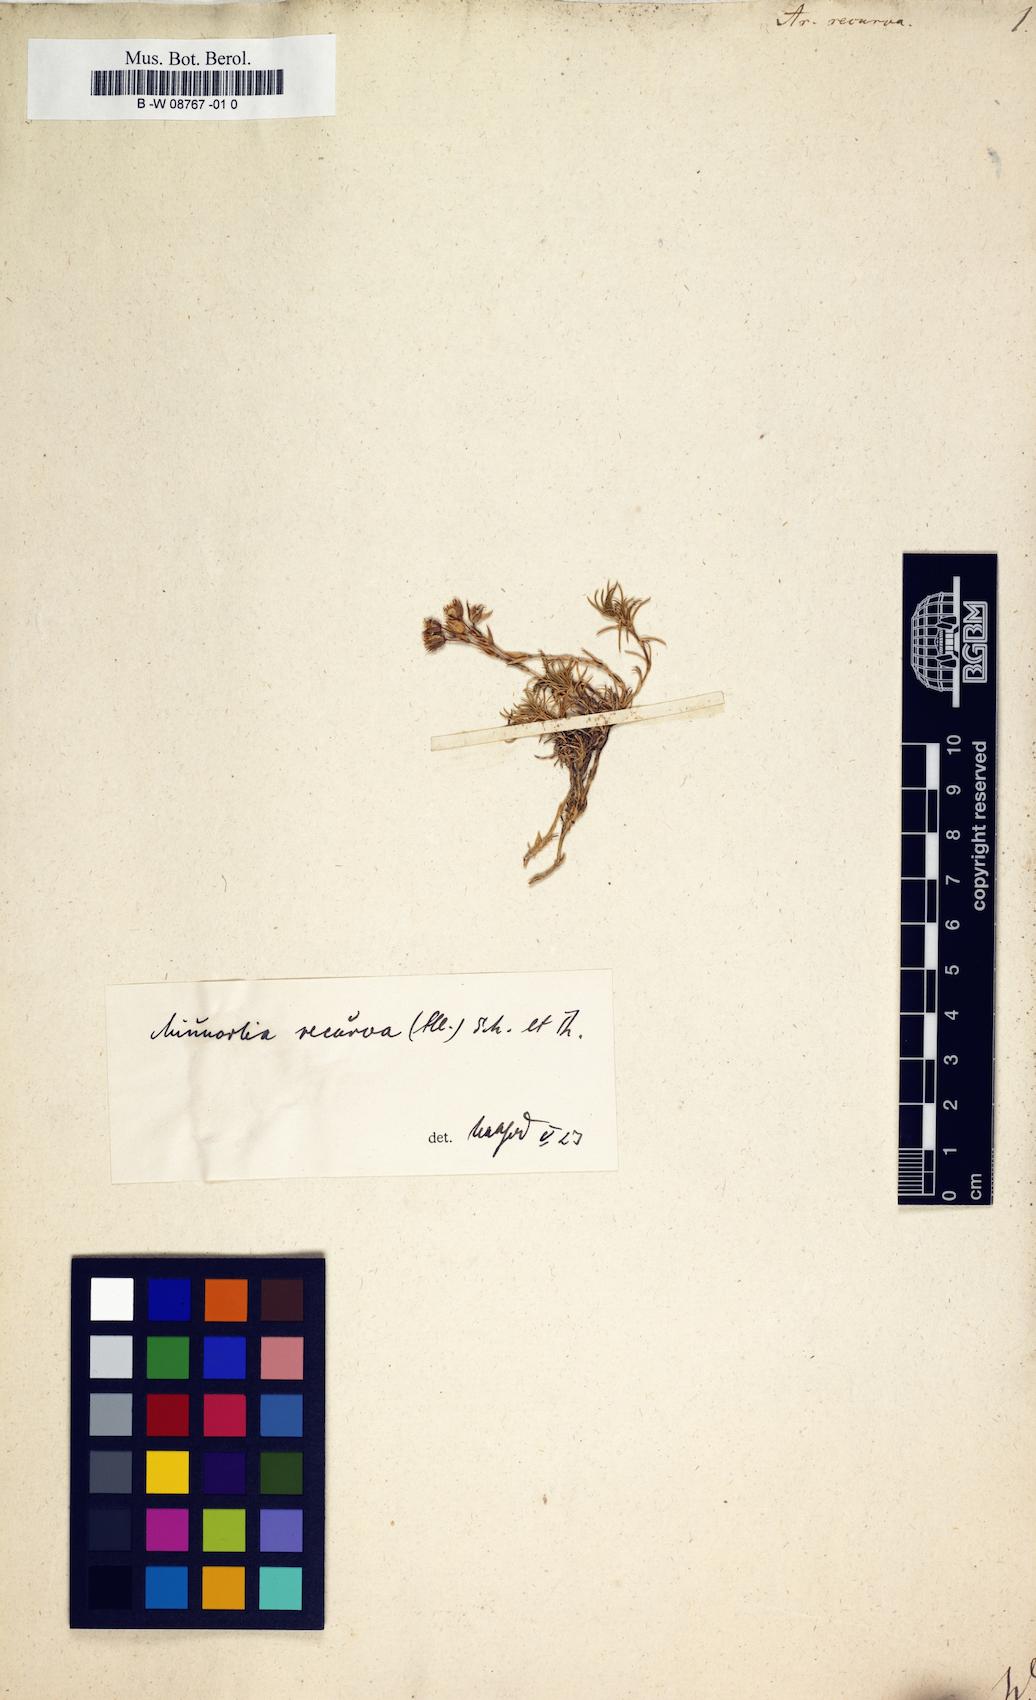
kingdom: Plantae
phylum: Tracheophyta
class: Magnoliopsida
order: Caryophyllales
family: Caryophyllaceae
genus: Minuartia
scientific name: Minuartia recurva
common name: Recurved sandwort
